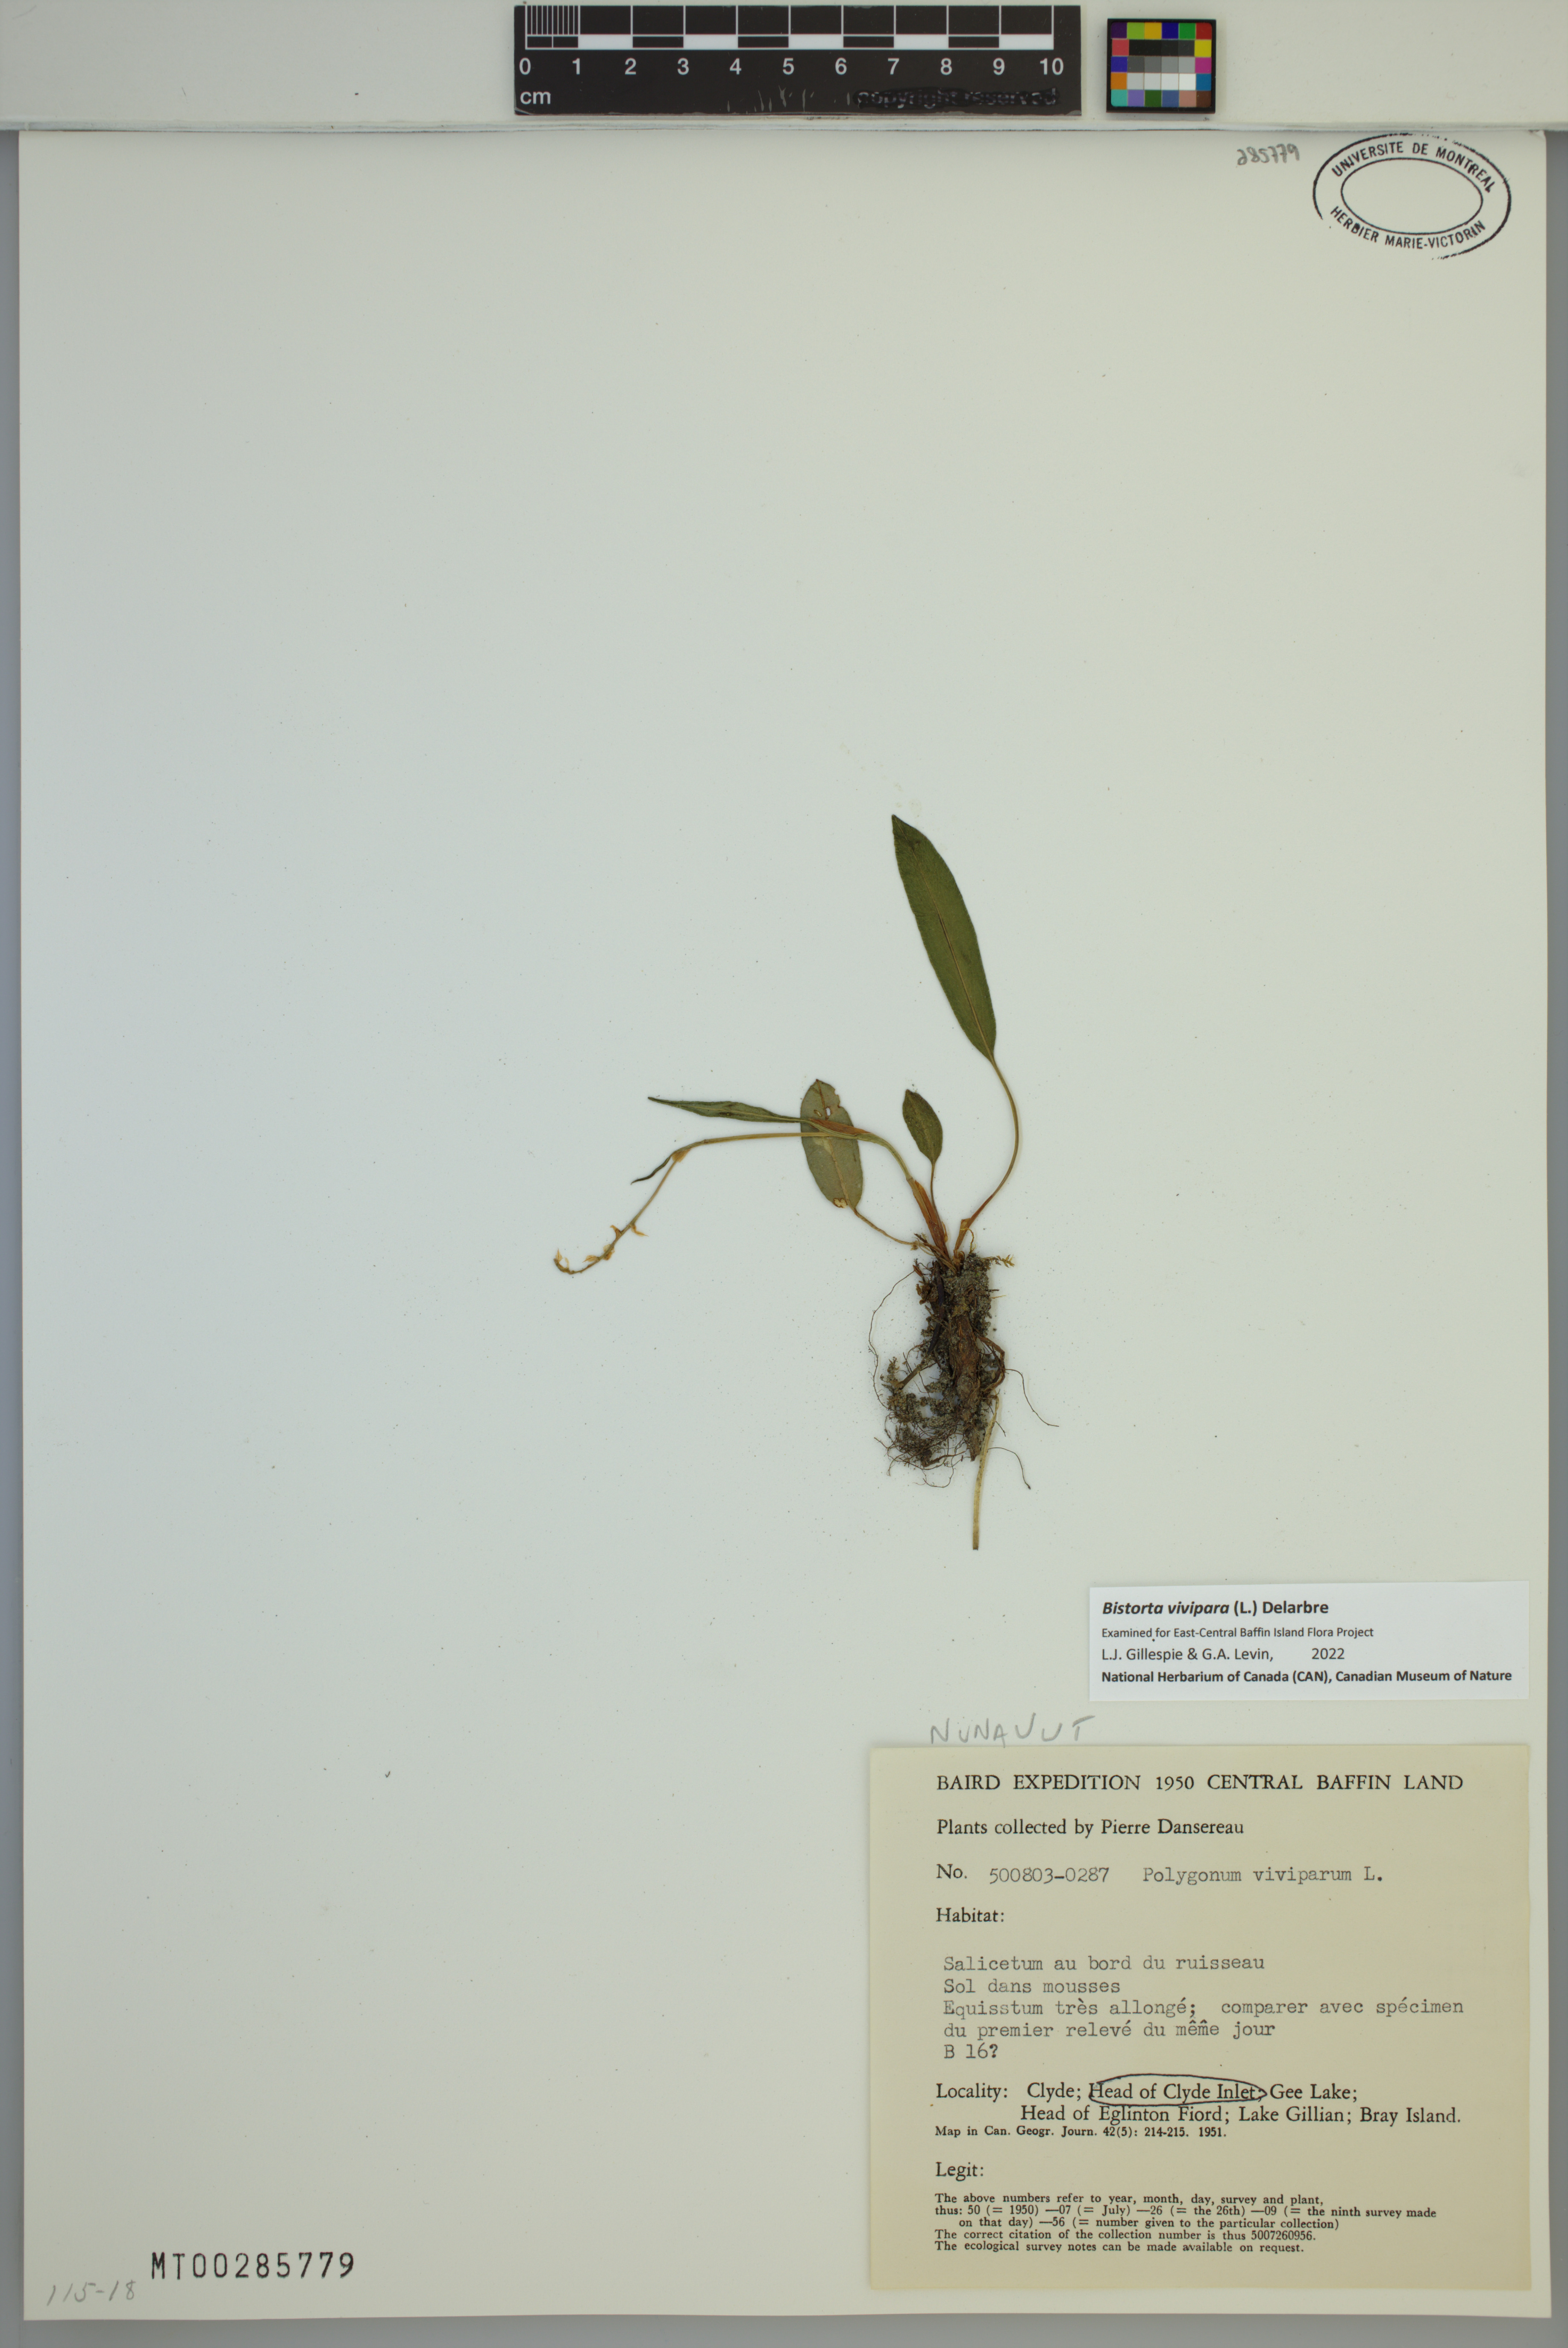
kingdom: Plantae
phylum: Tracheophyta
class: Magnoliopsida
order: Caryophyllales
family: Polygonaceae
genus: Bistorta
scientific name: Bistorta vivipara
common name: Alpine bistort
